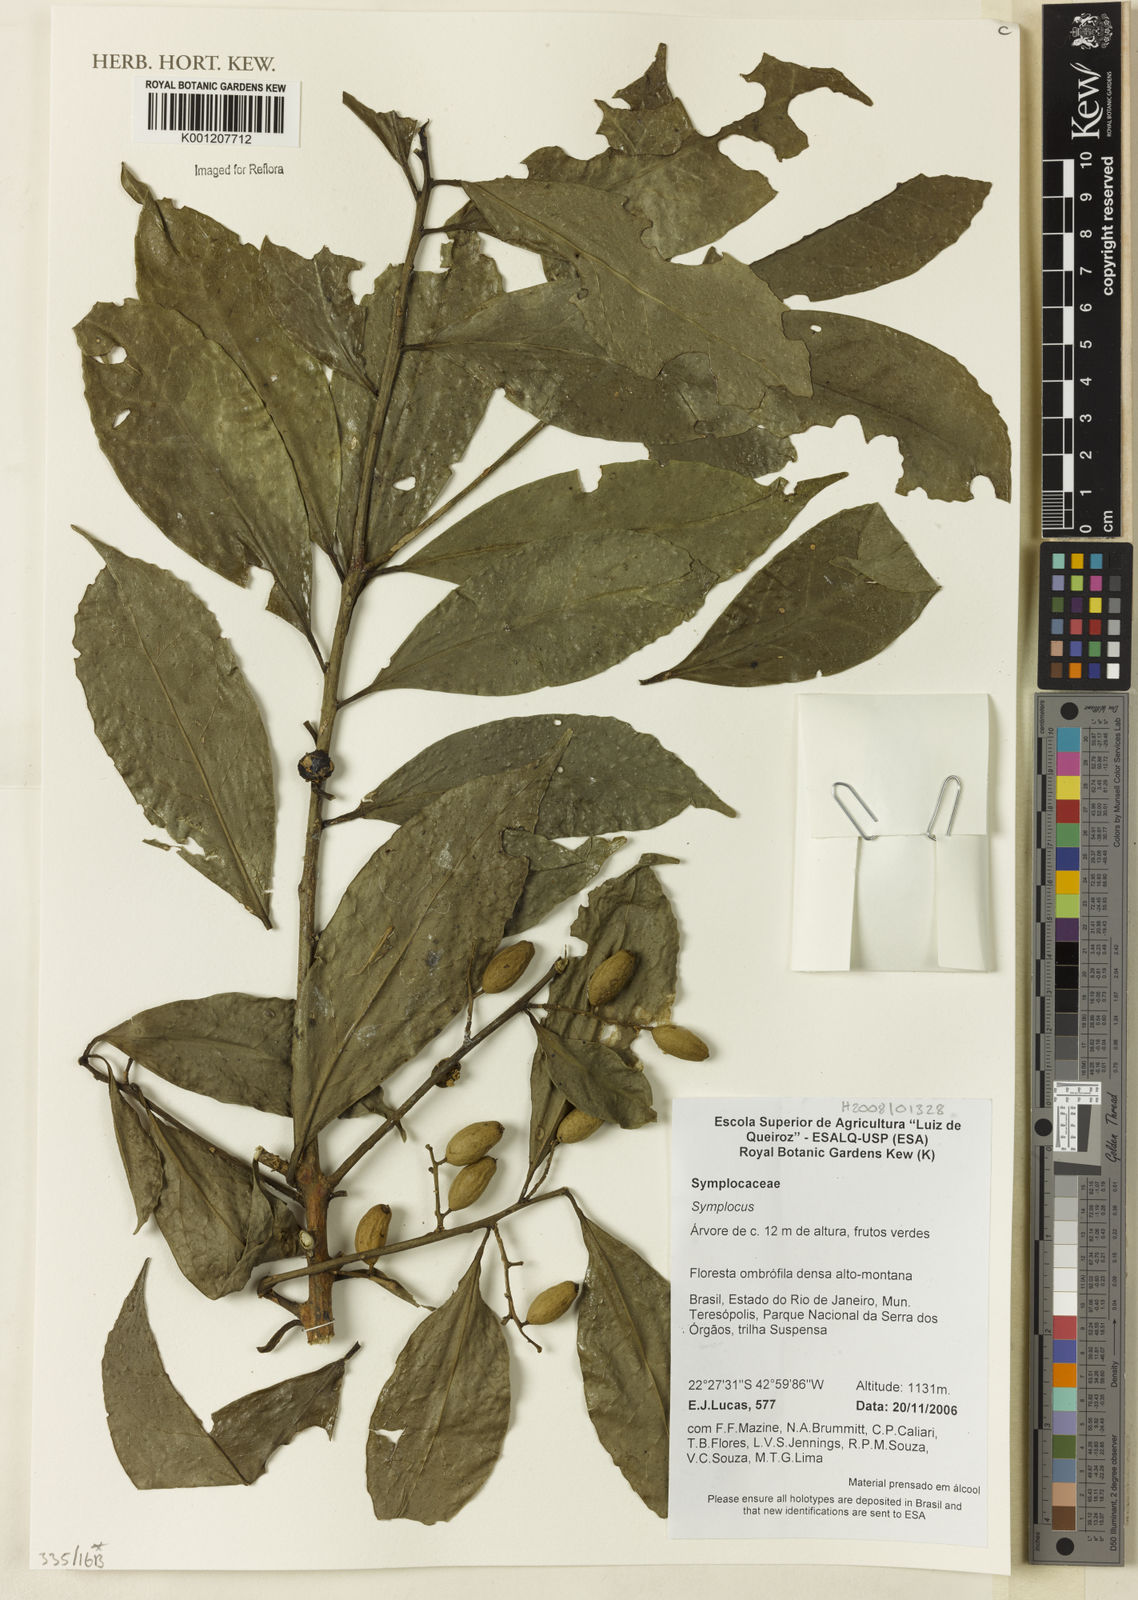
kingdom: Plantae
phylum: Tracheophyta
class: Magnoliopsida
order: Ericales
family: Symplocaceae
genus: Symplocos
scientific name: Symplocos
